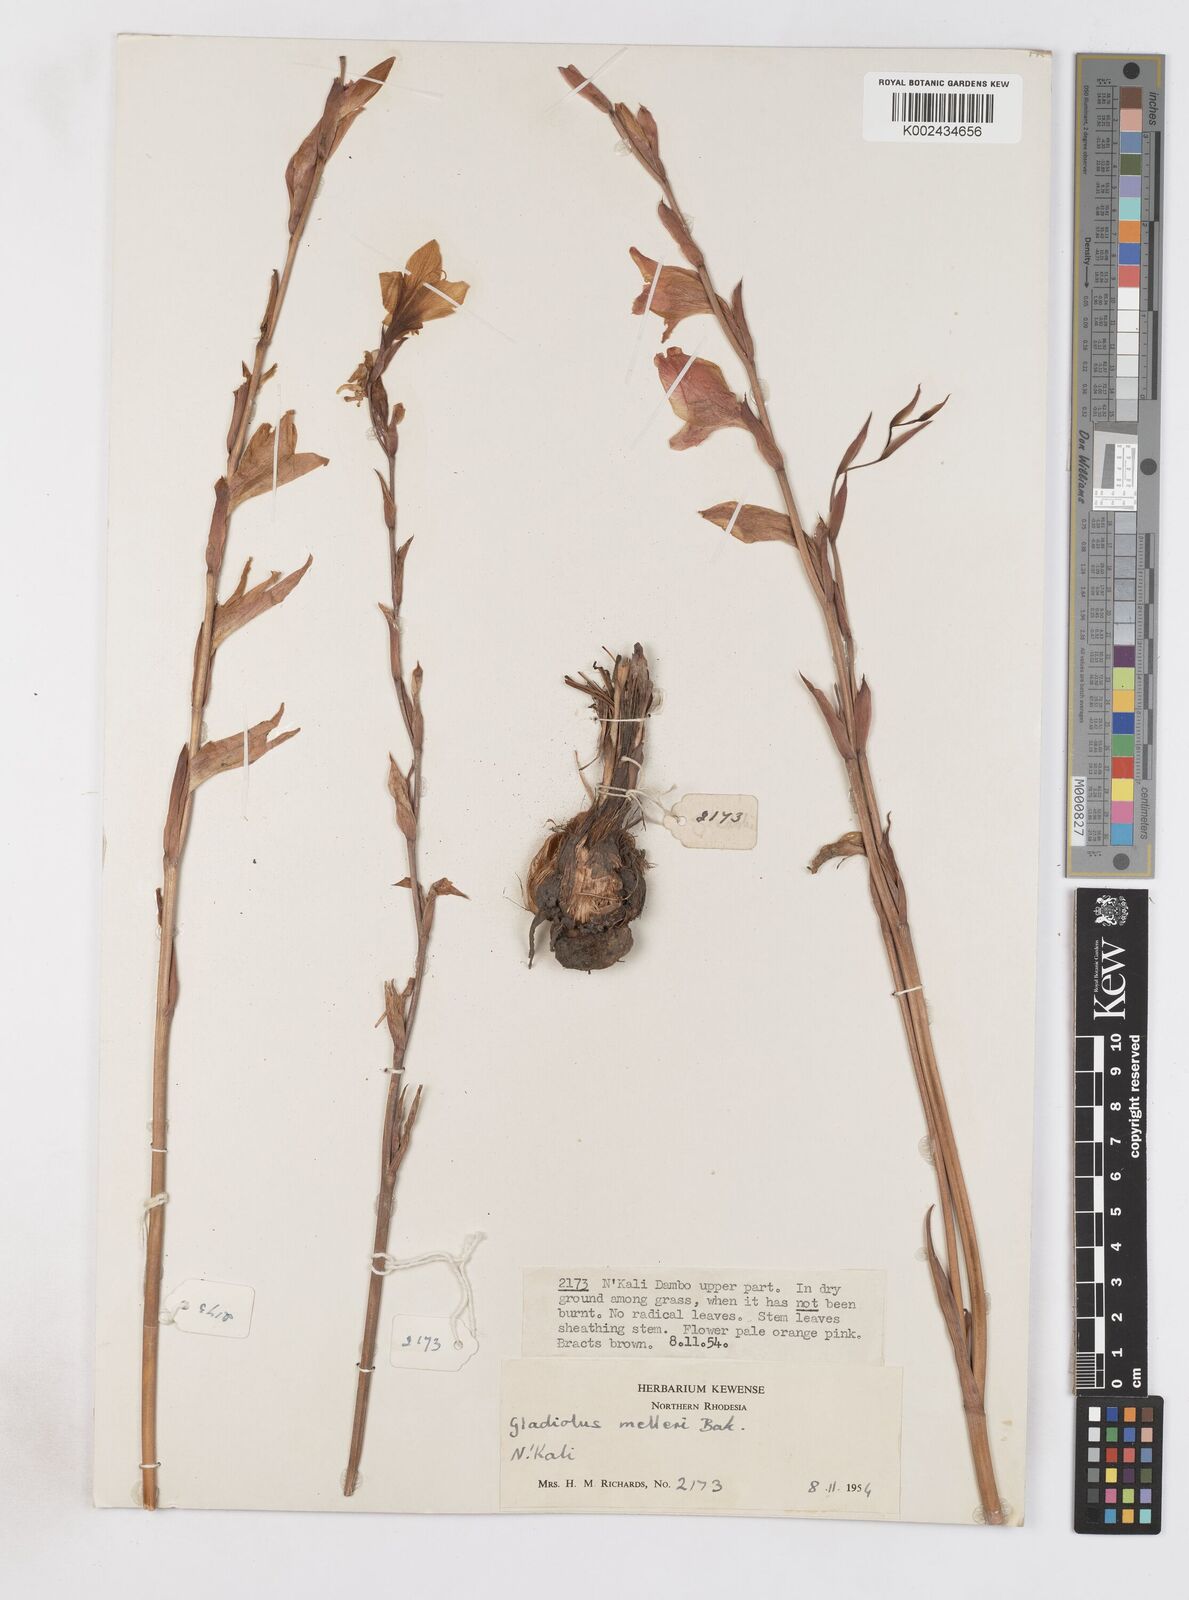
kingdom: Plantae
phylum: Tracheophyta
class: Liliopsida
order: Asparagales
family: Iridaceae
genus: Gladiolus
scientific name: Gladiolus melleri
